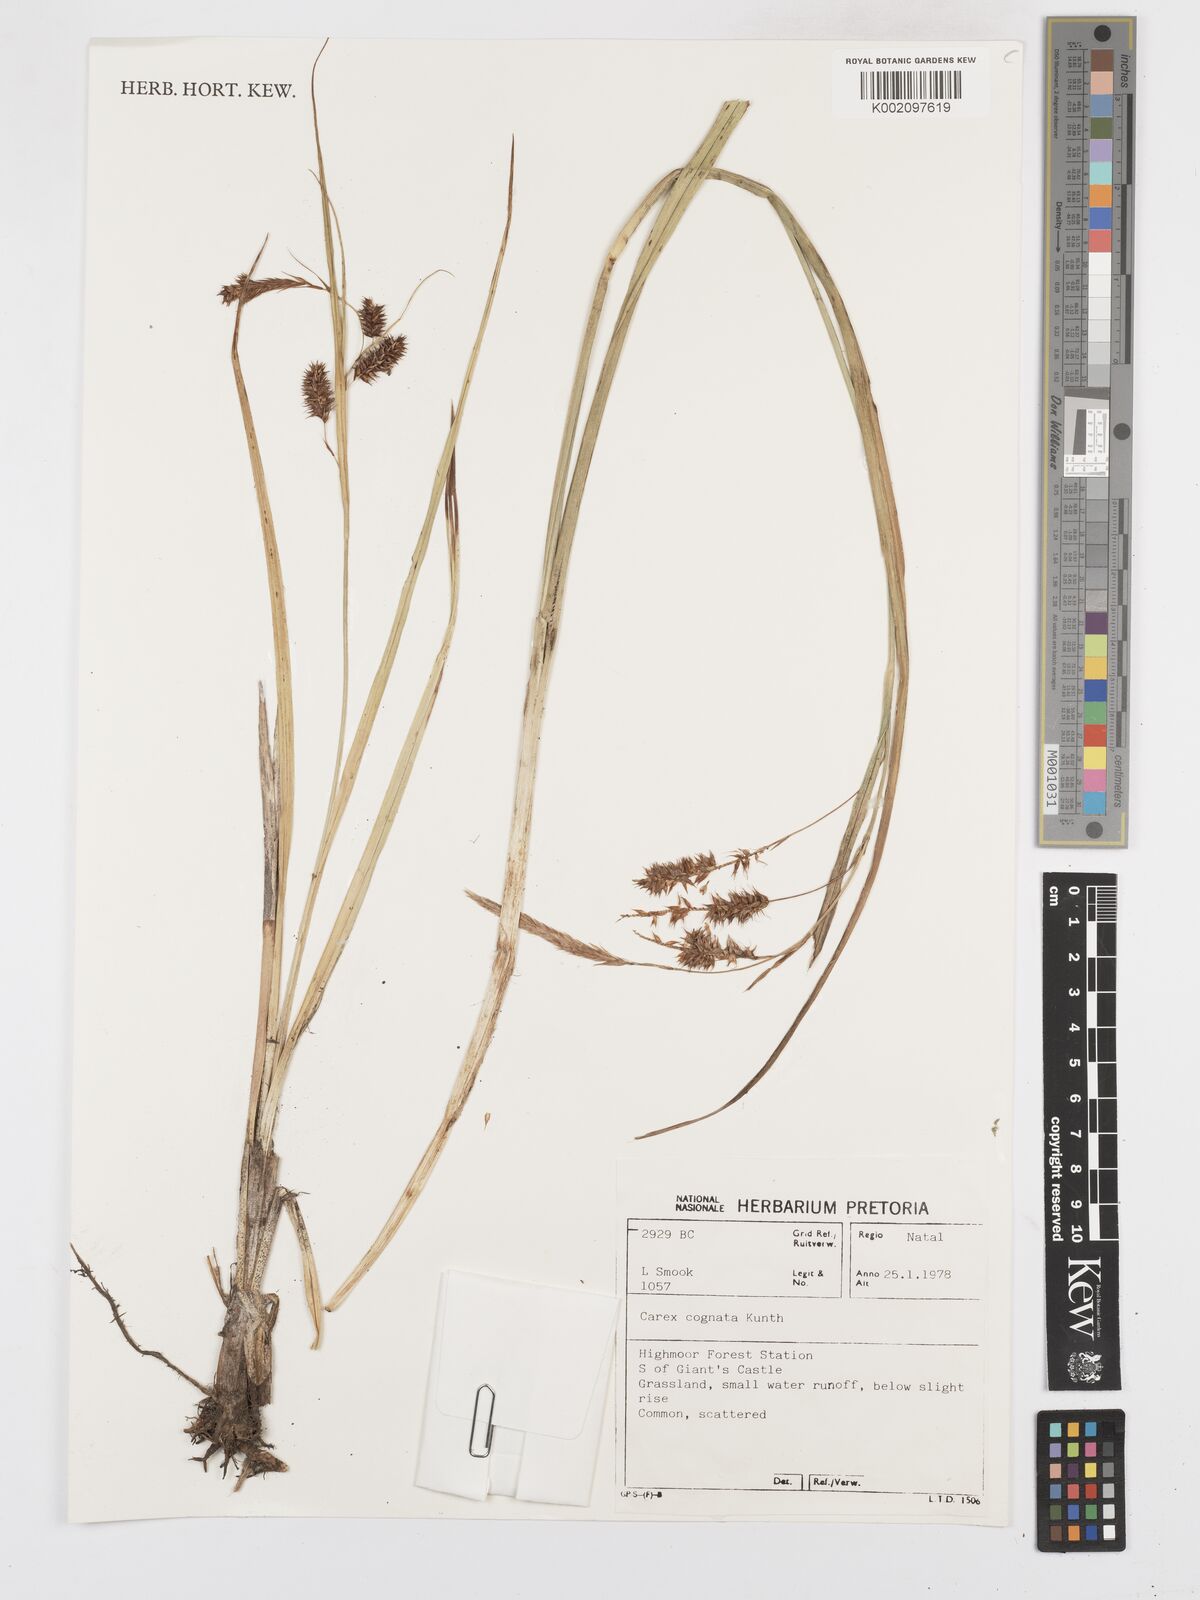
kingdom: Plantae
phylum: Tracheophyta
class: Liliopsida
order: Poales
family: Cyperaceae
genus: Carex
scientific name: Carex cognata
